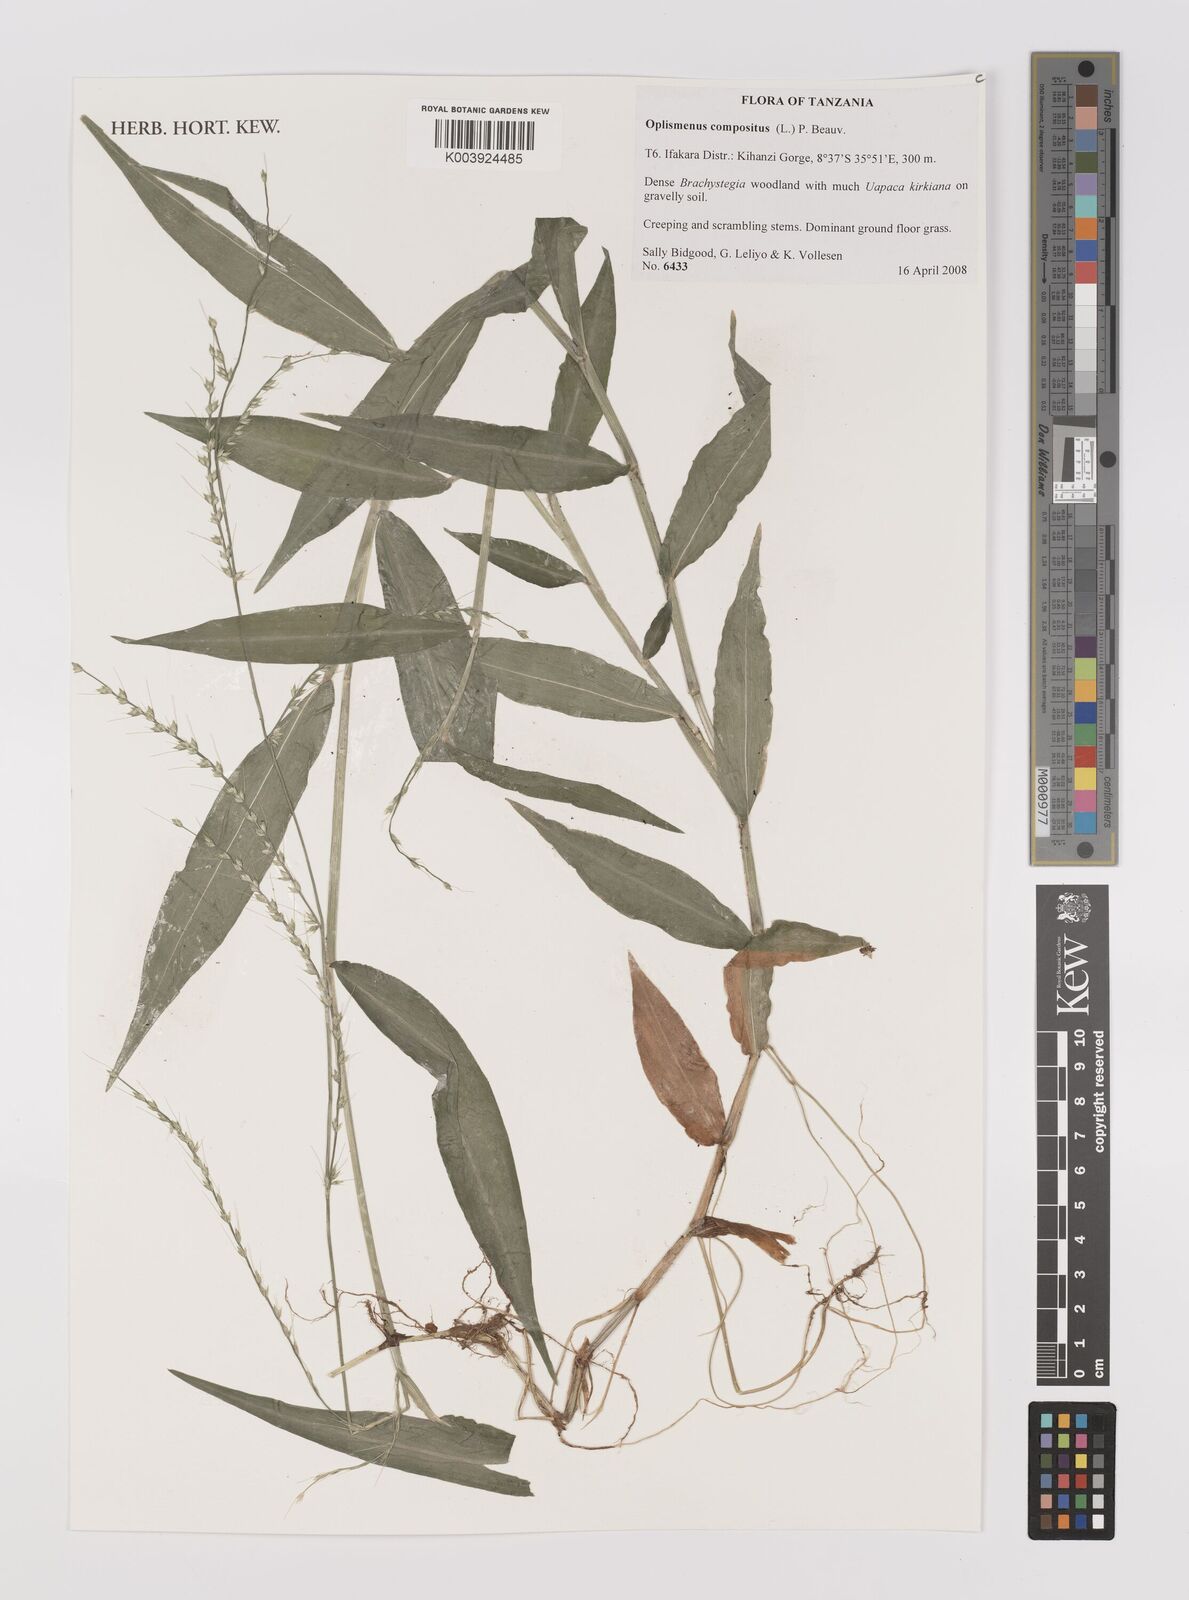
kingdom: Plantae
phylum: Tracheophyta
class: Liliopsida
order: Poales
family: Poaceae
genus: Oplismenus
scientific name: Oplismenus compositus
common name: Running mountain grass
